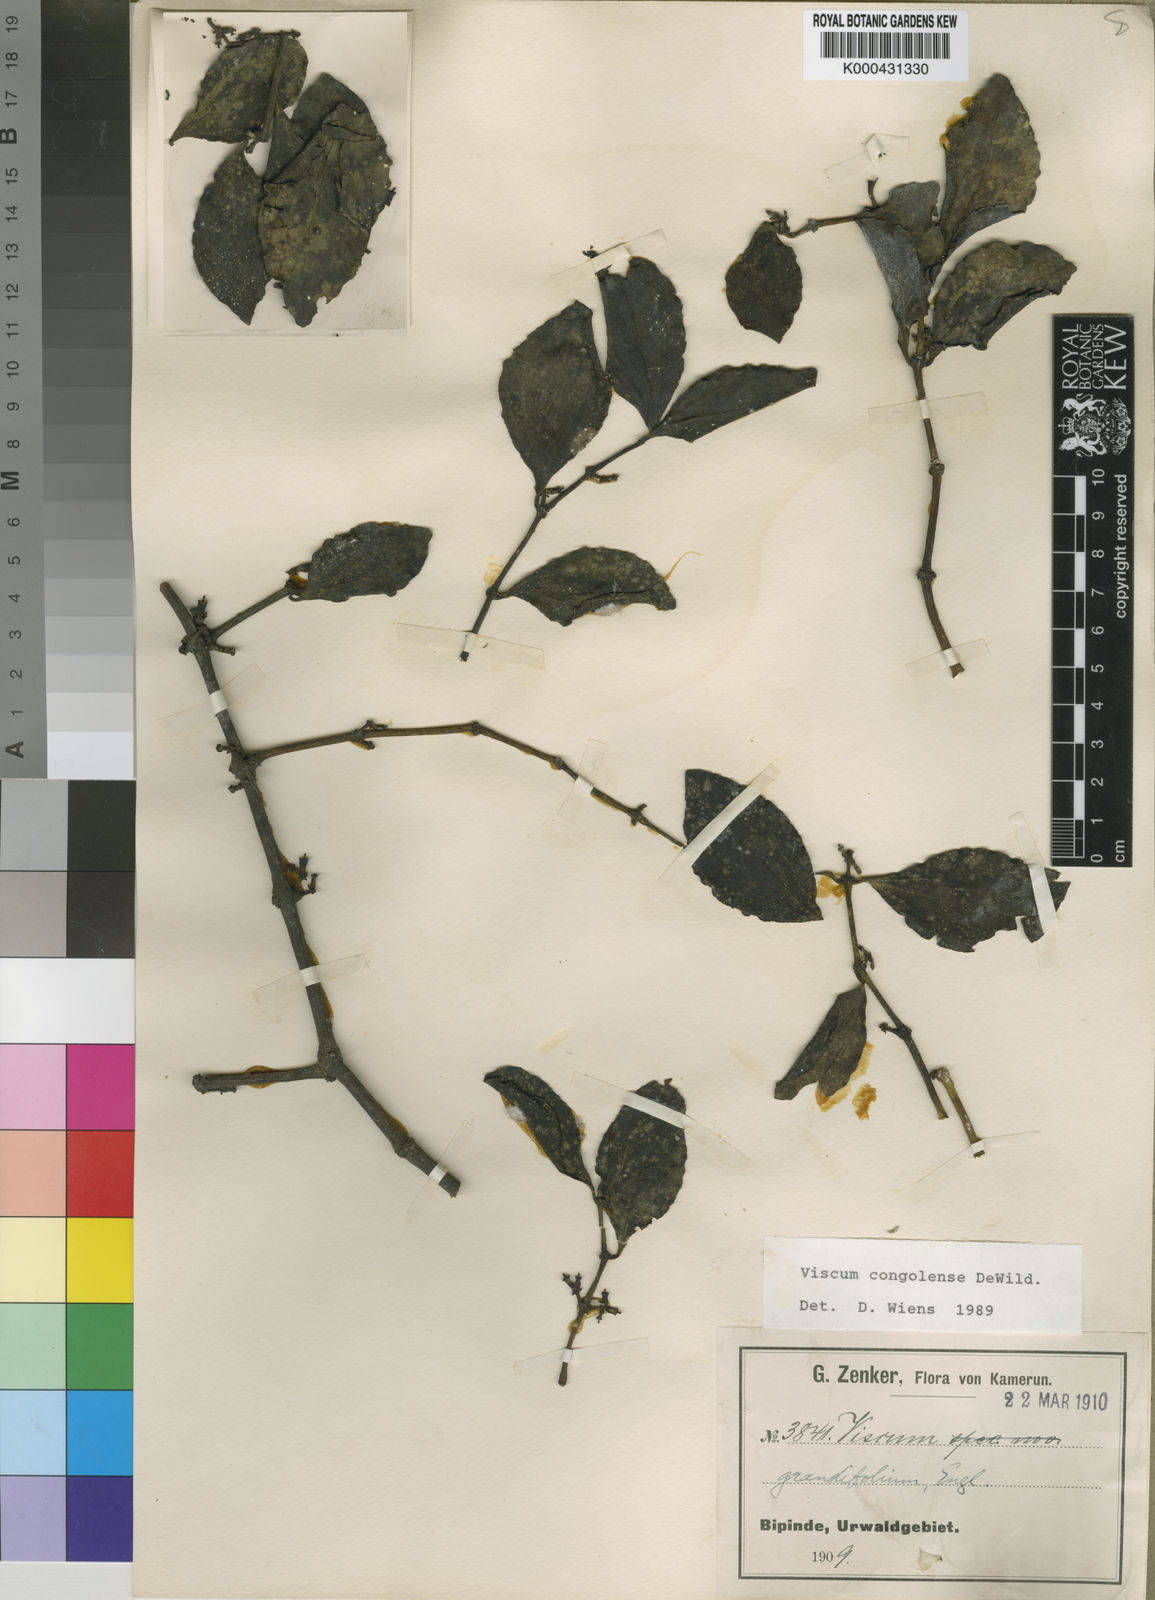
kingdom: Plantae
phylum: Tracheophyta
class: Magnoliopsida
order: Santalales
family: Viscaceae
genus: Viscum
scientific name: Viscum congolense
